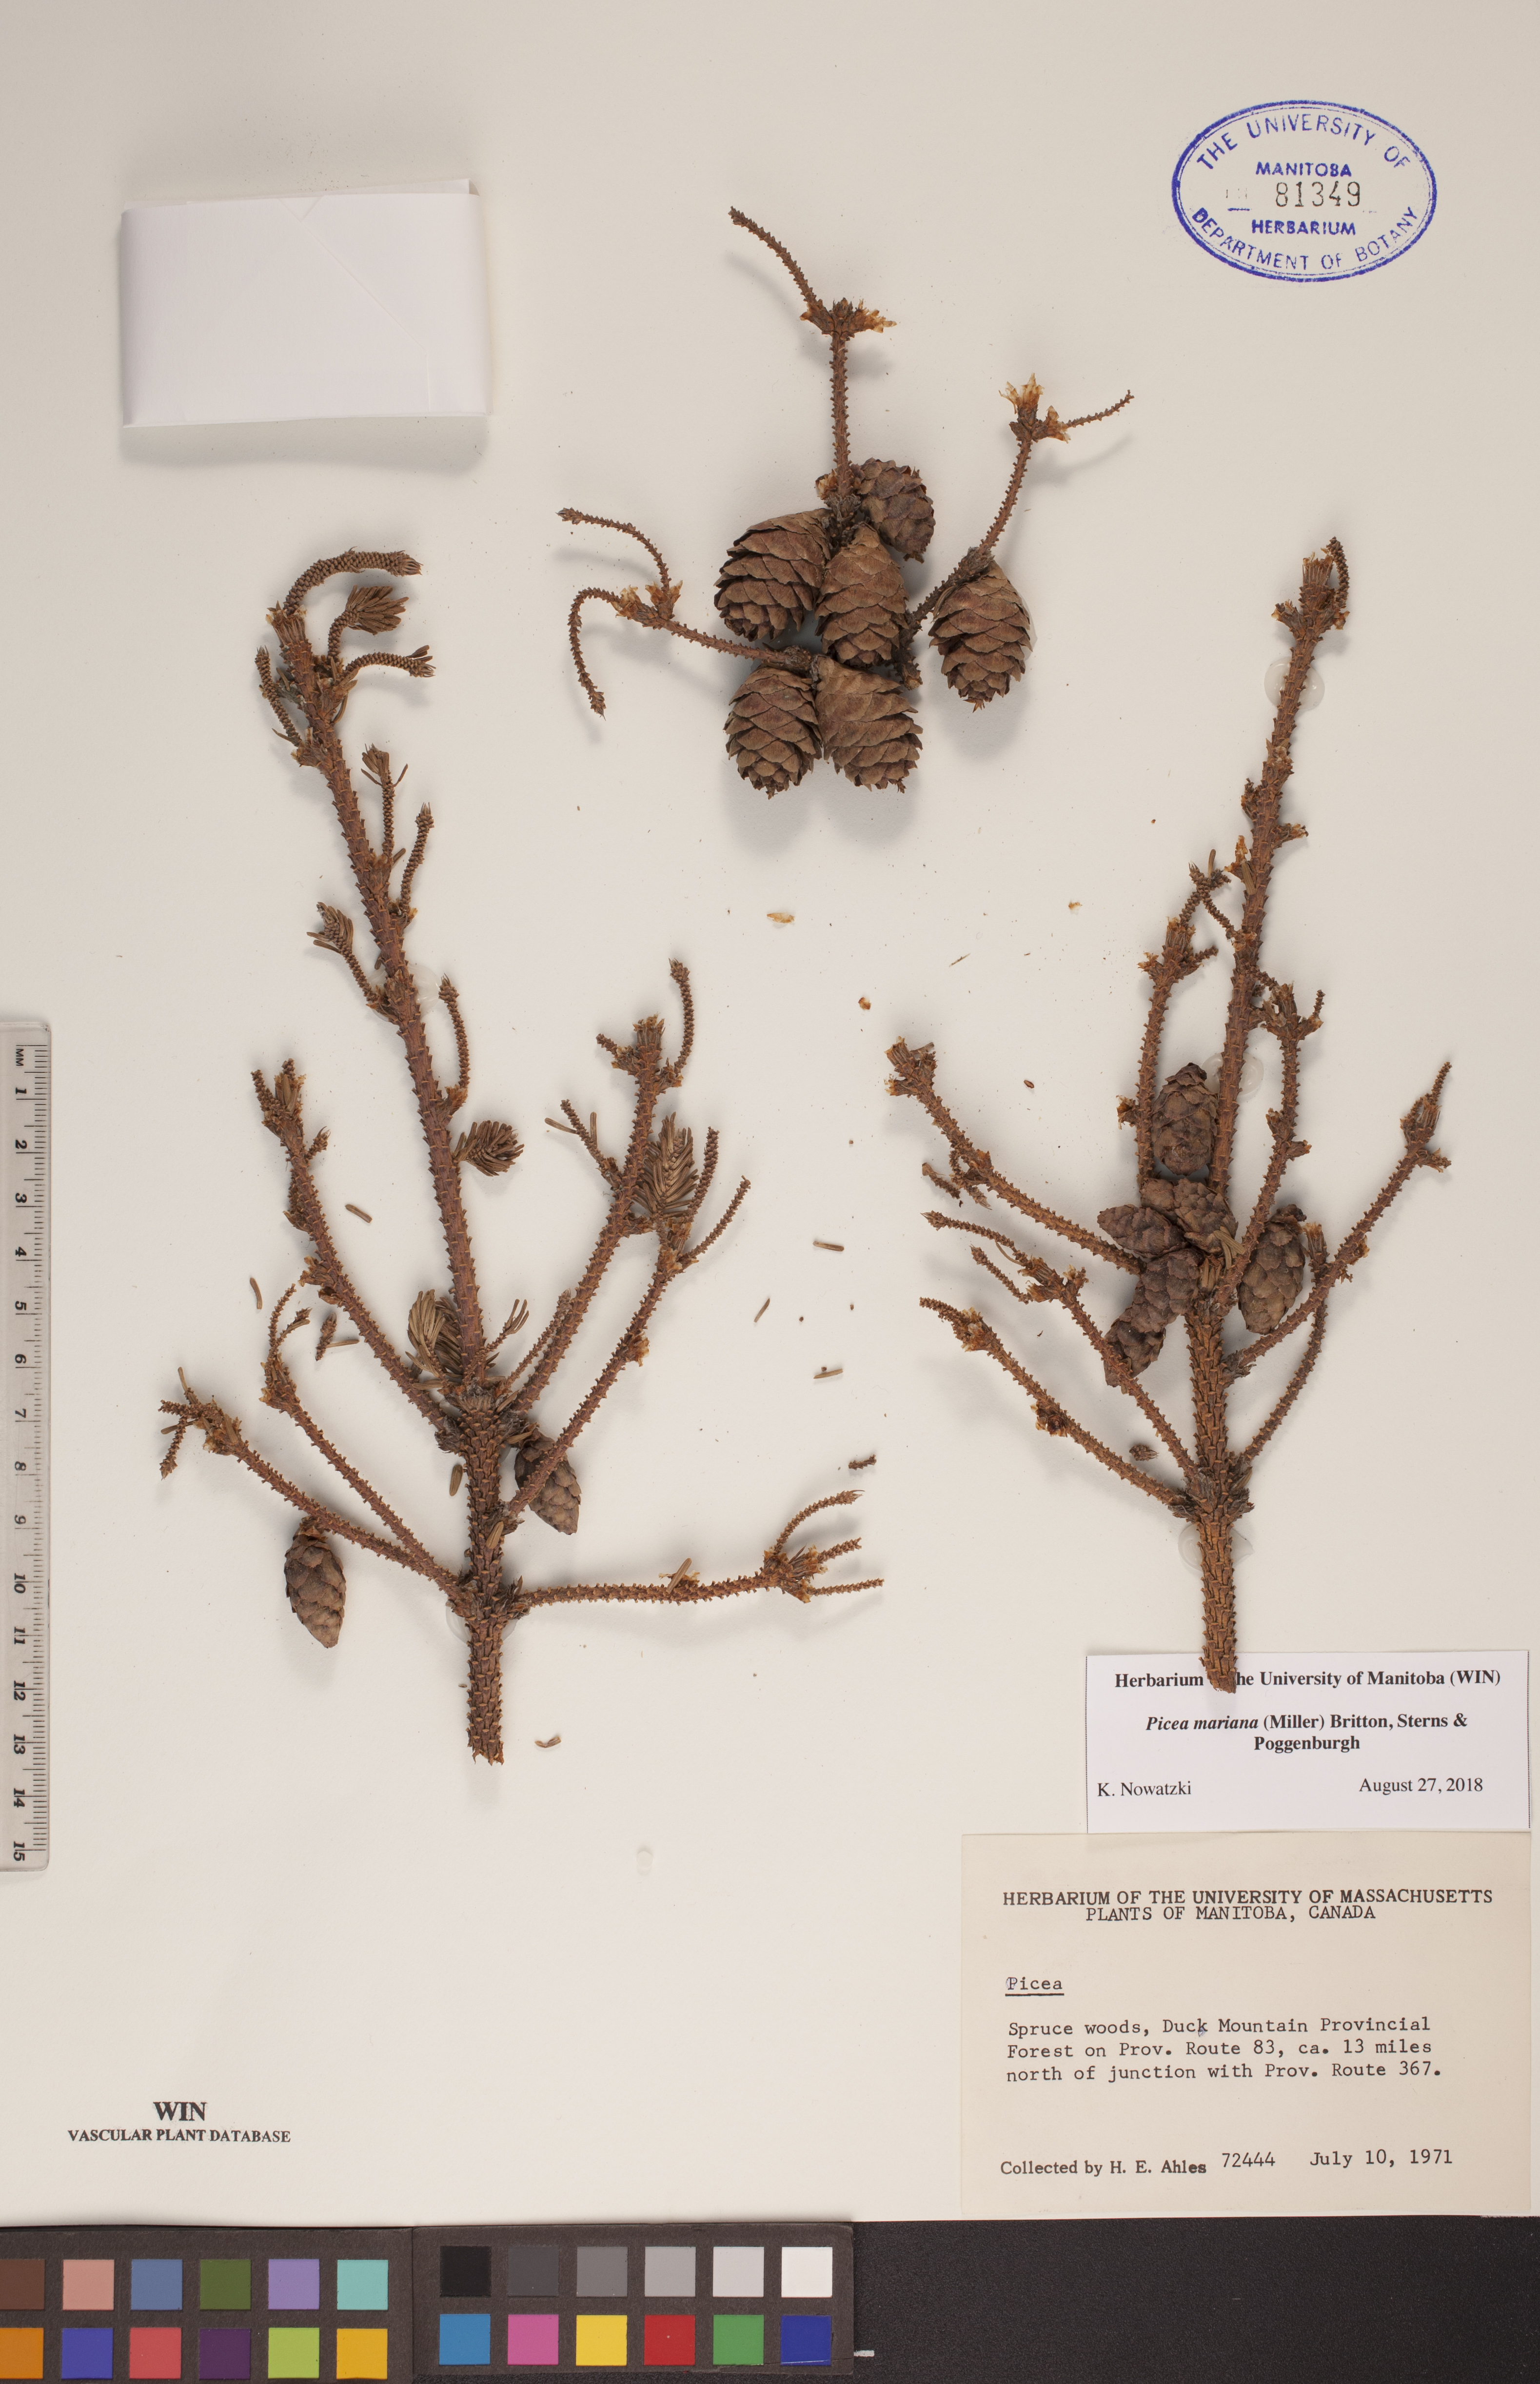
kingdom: Plantae
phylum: Tracheophyta
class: Pinopsida
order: Pinales
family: Pinaceae
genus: Picea
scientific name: Picea mariana
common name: Black spruce
